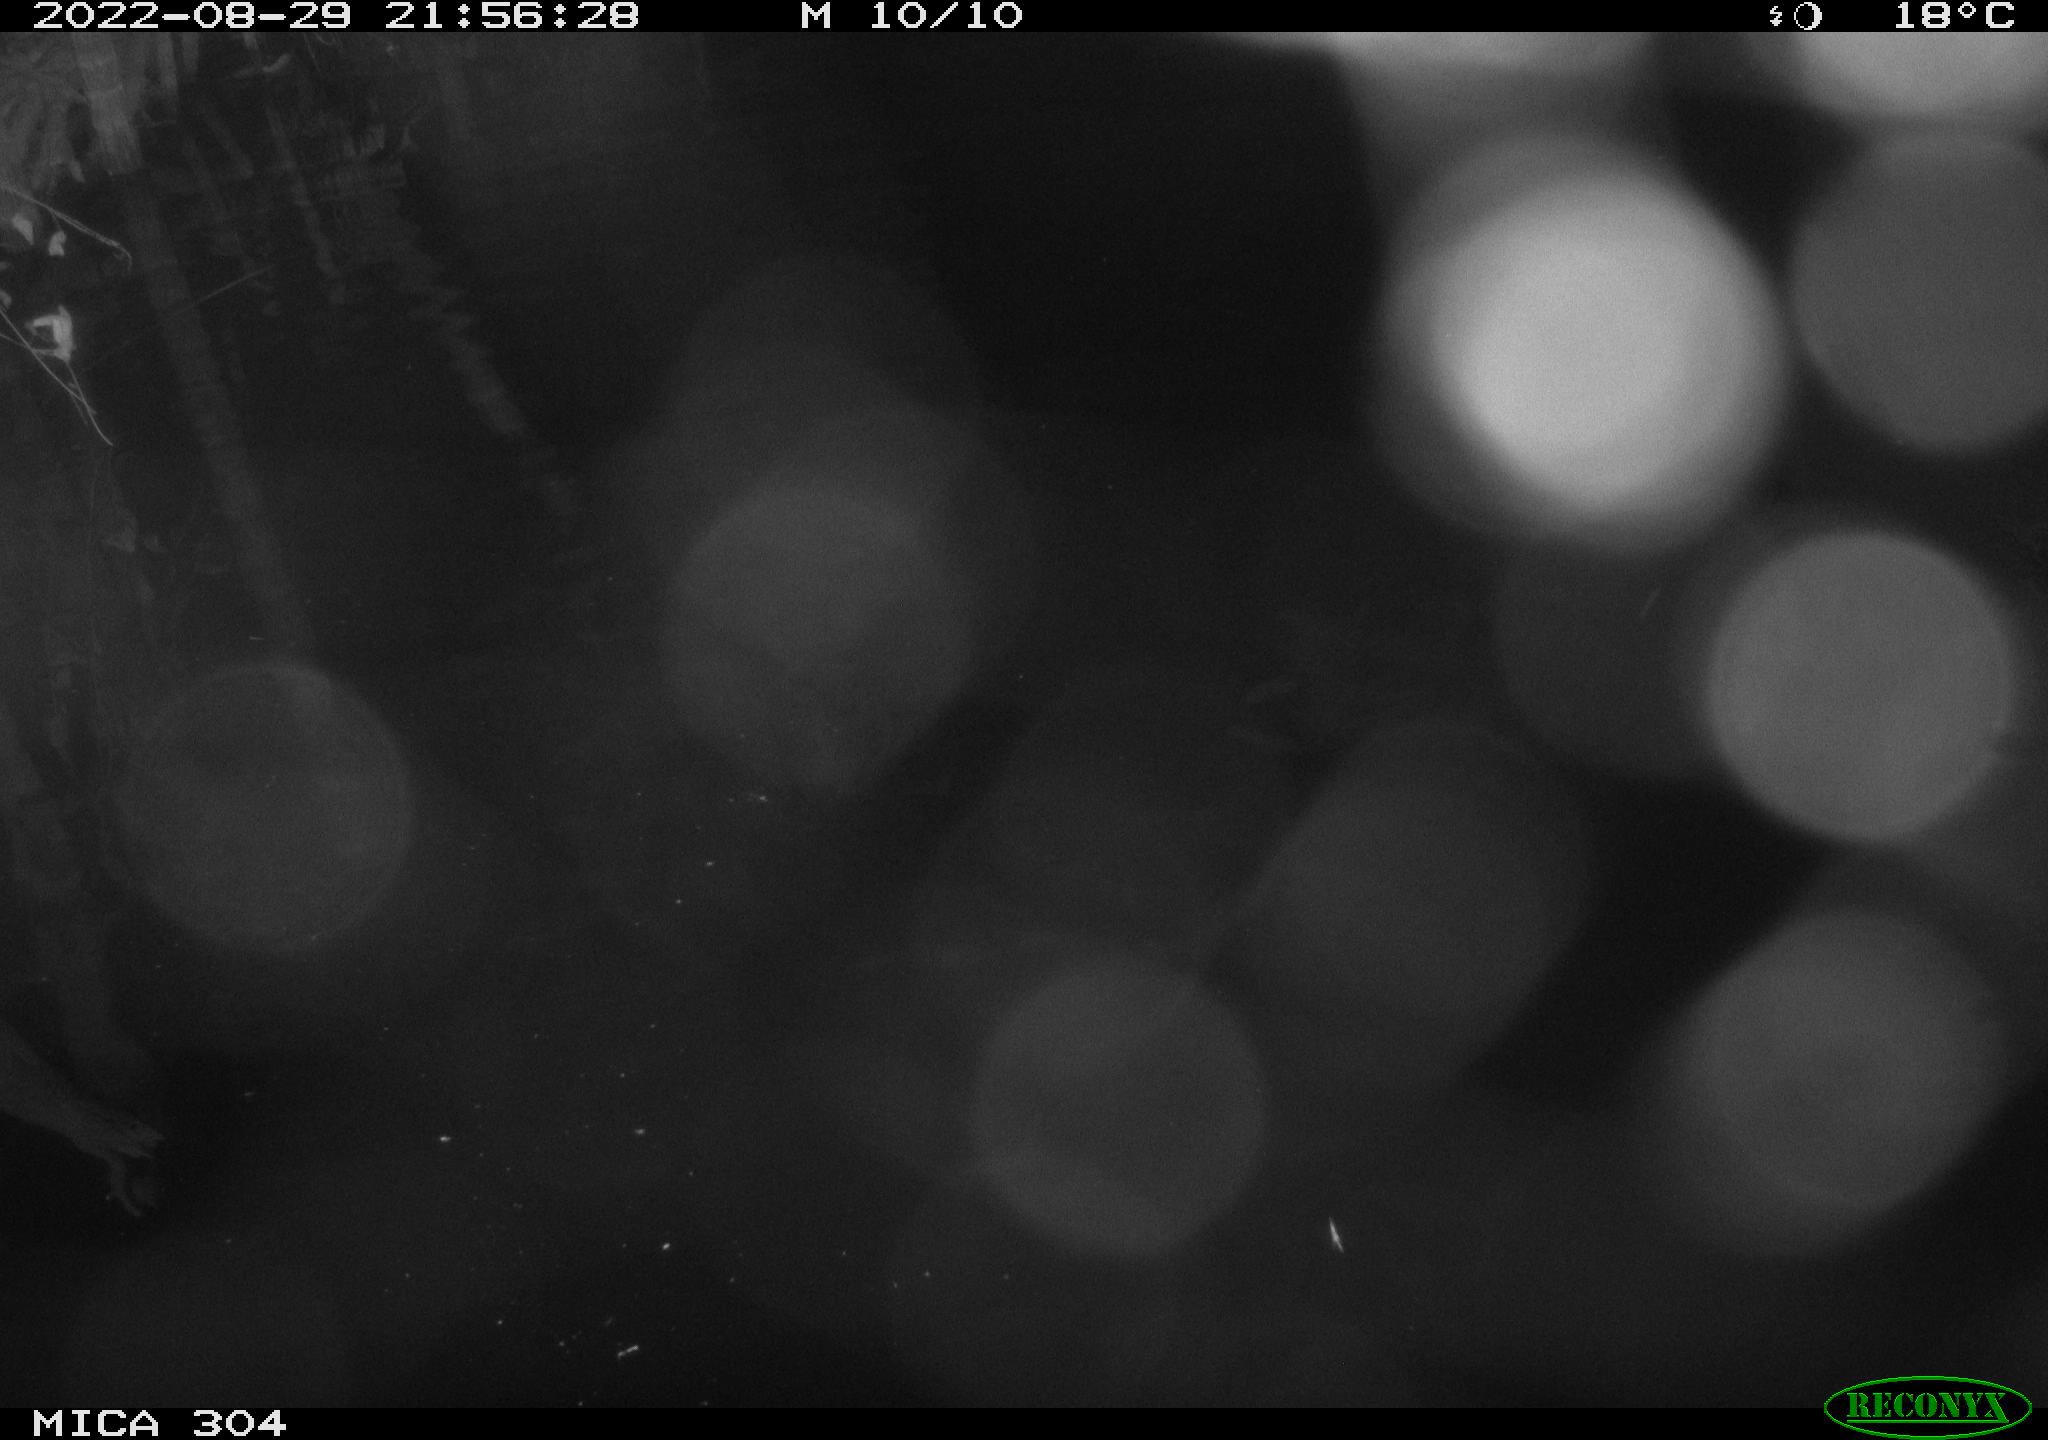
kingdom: Animalia
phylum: Chordata
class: Mammalia
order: Rodentia
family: Muridae
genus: Rattus
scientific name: Rattus norvegicus
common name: Brown rat
